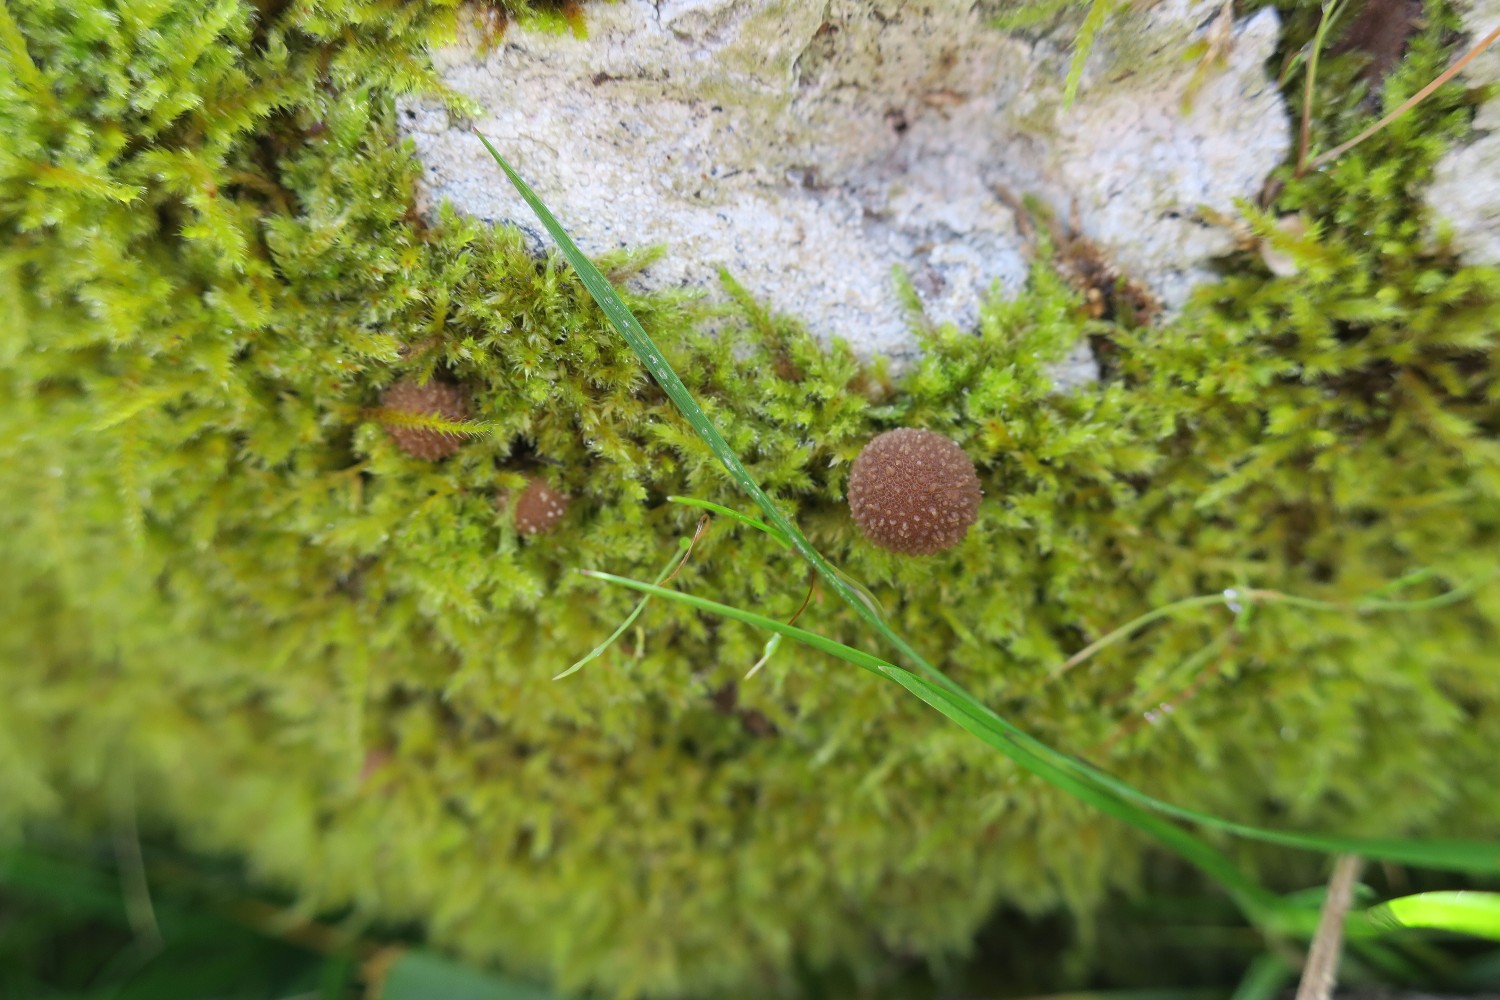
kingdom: Fungi
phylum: Basidiomycota
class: Agaricomycetes
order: Agaricales
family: Lycoperdaceae
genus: Apioperdon
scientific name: Apioperdon pyriforme
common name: pære-støvbold
